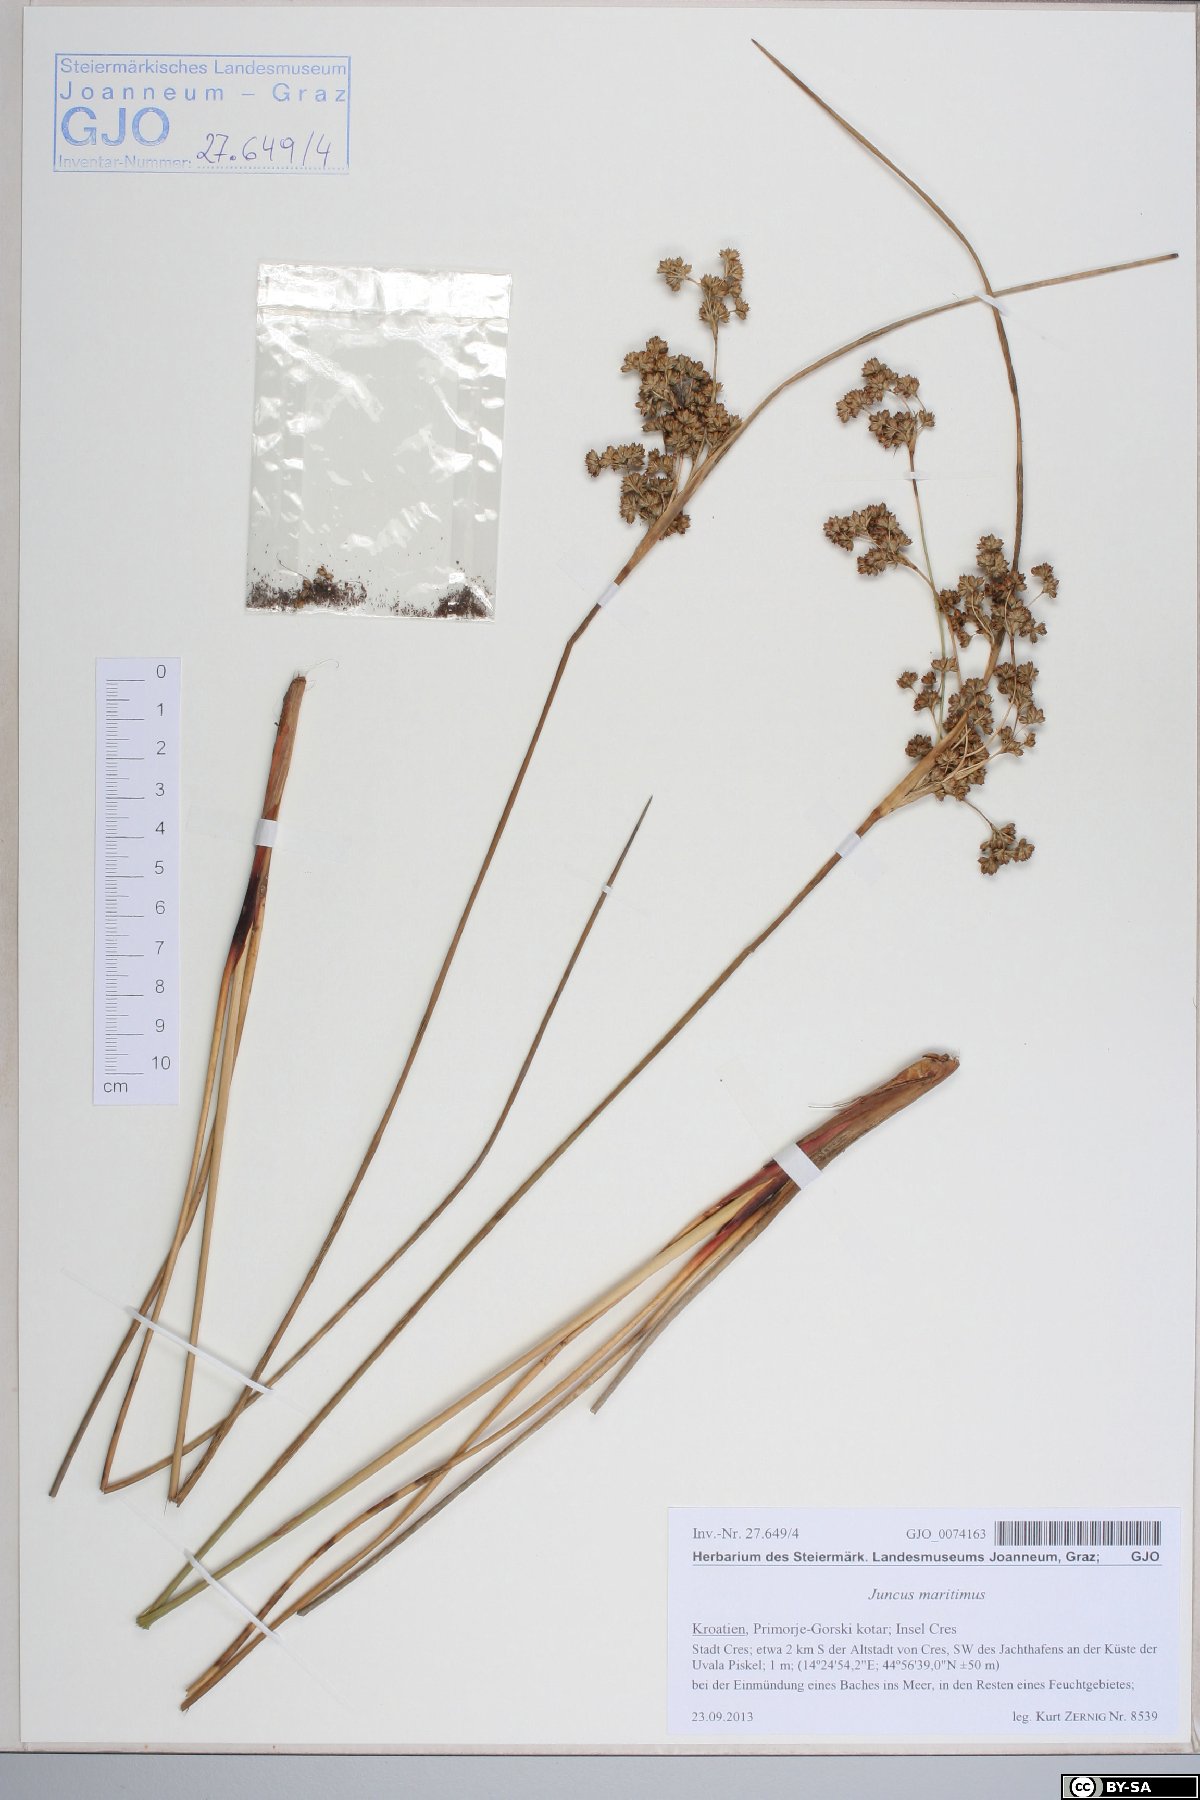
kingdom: Plantae
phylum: Tracheophyta
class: Liliopsida
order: Poales
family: Juncaceae
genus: Juncus
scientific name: Juncus maritimus
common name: Sea rush
